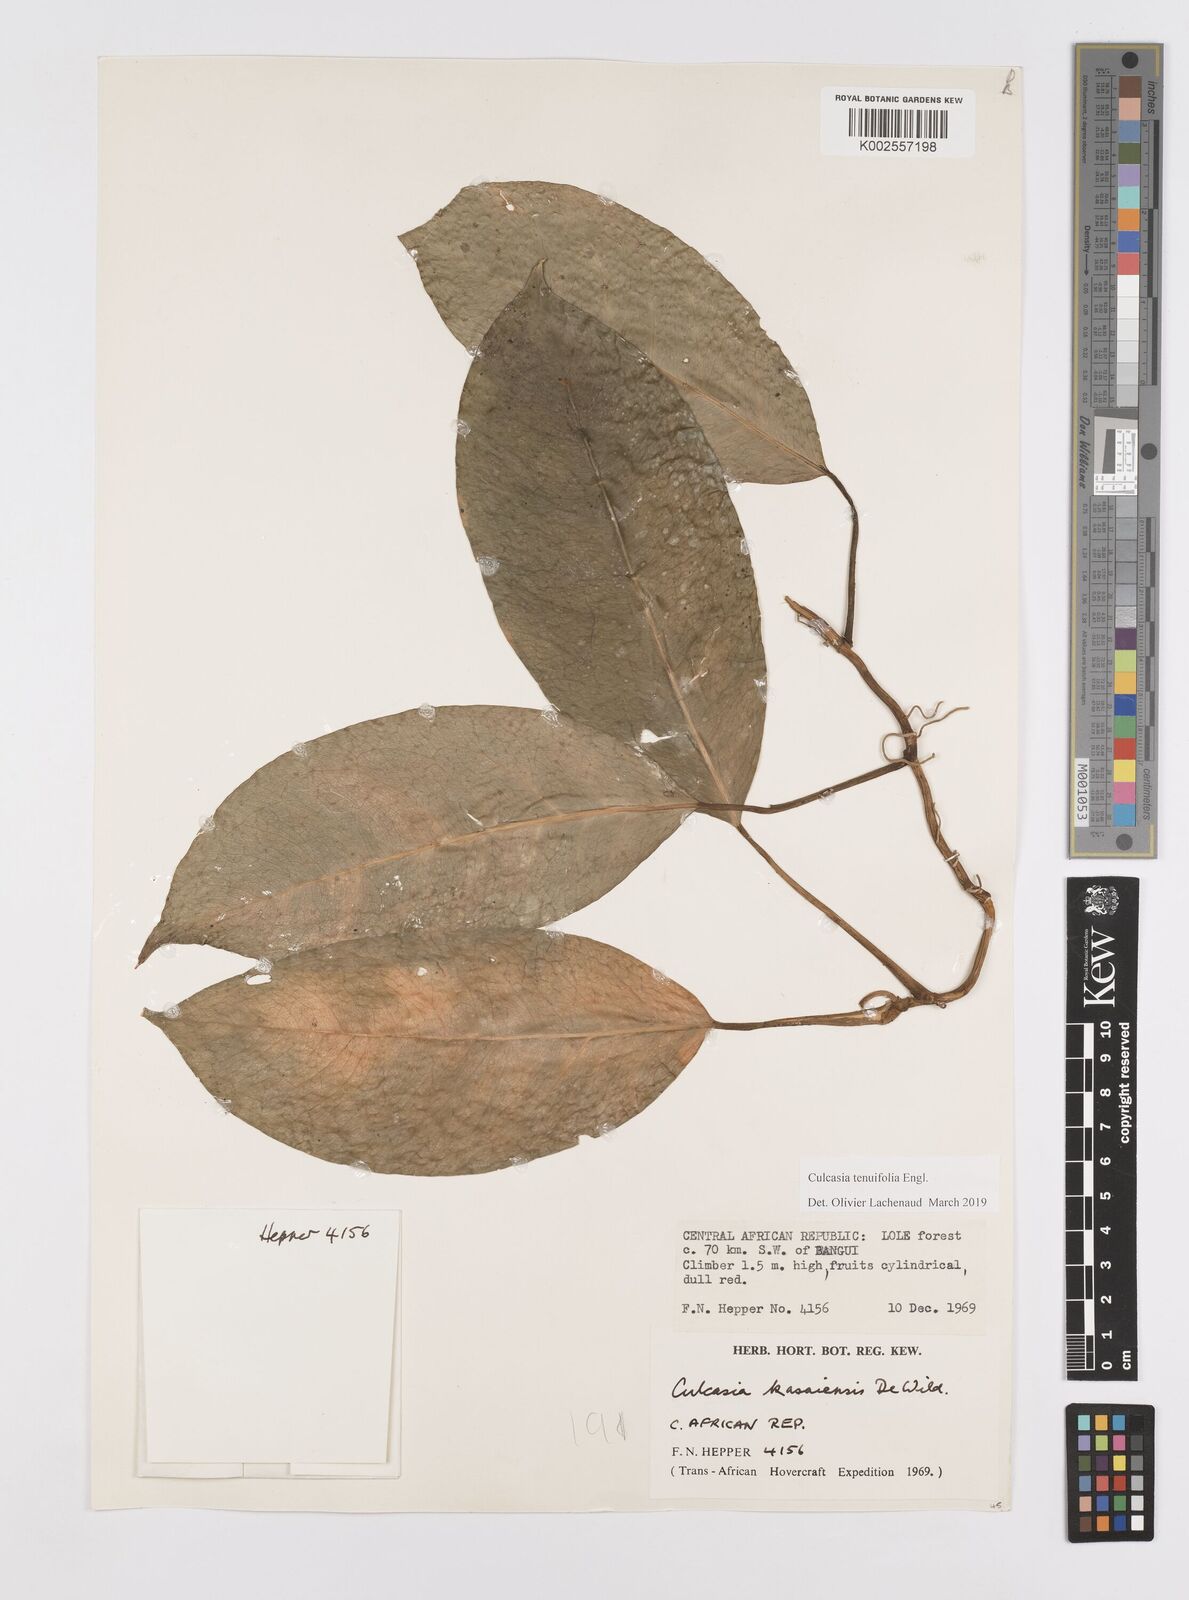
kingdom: Plantae
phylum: Tracheophyta
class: Liliopsida
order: Alismatales
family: Araceae
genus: Culcasia
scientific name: Culcasia tenuifolia
